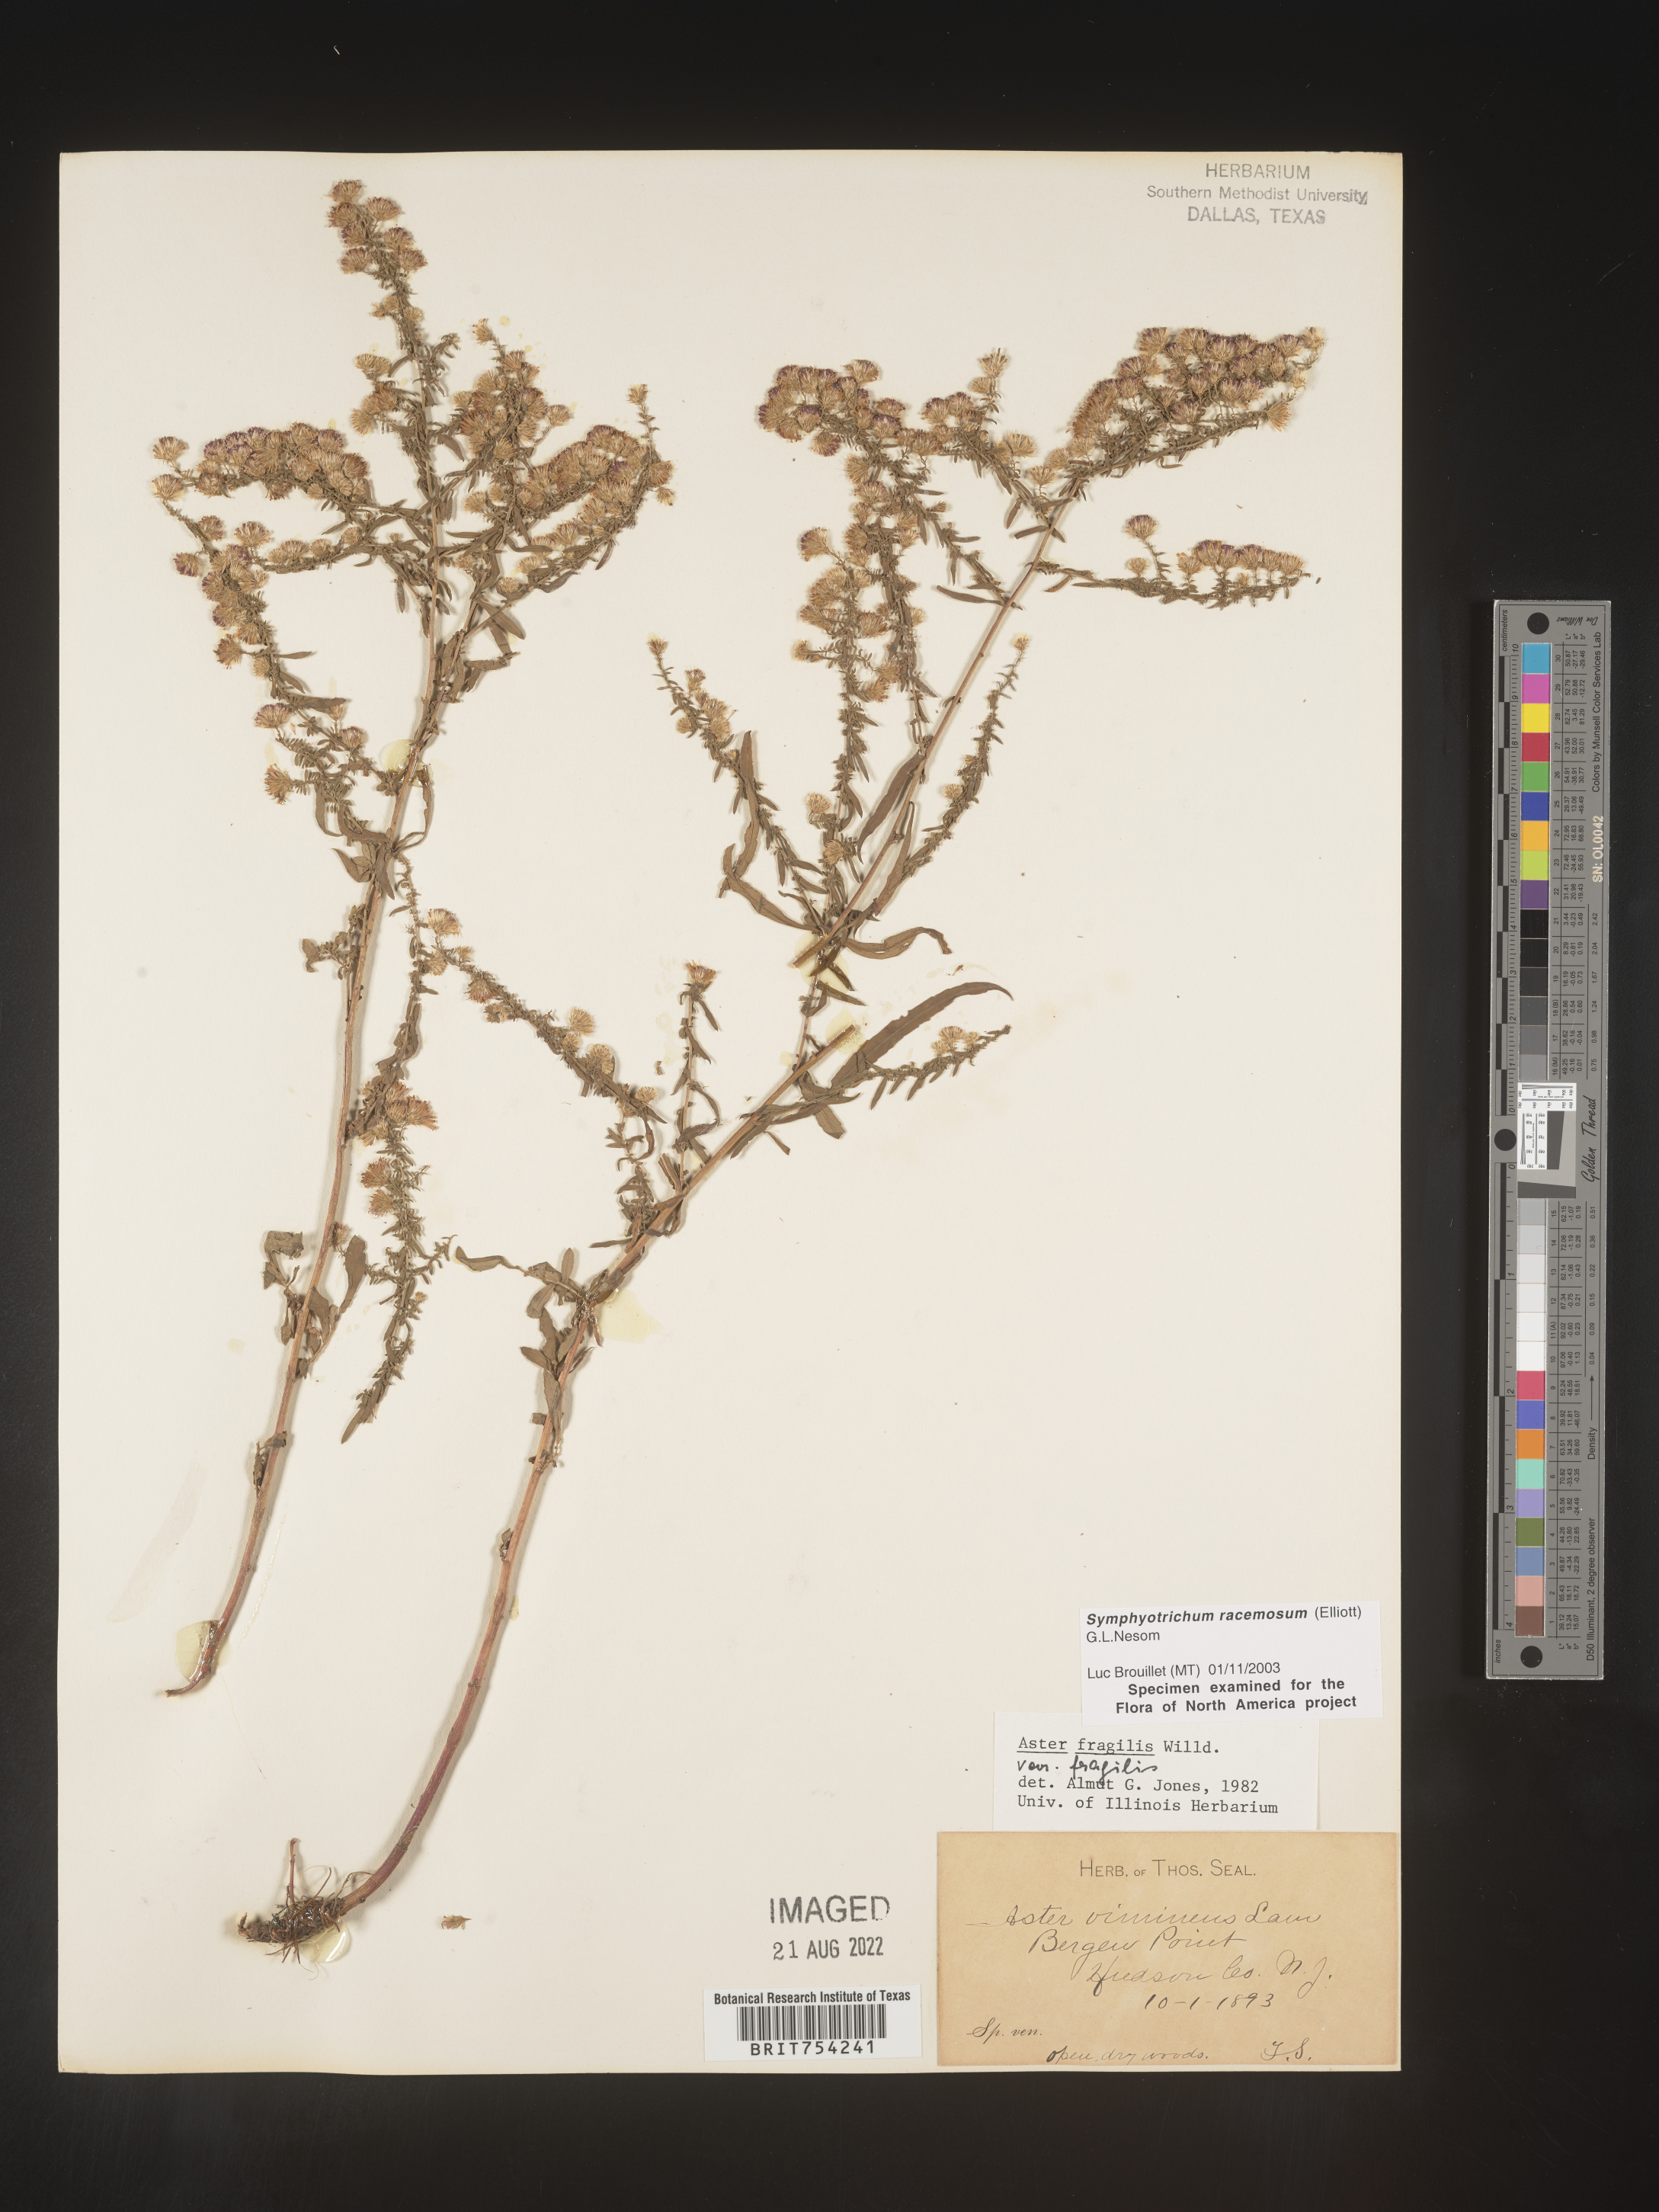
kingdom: Plantae
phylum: Tracheophyta
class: Magnoliopsida
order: Asterales
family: Asteraceae
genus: Symphyotrichum
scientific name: Symphyotrichum racemosum
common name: Small white aster
